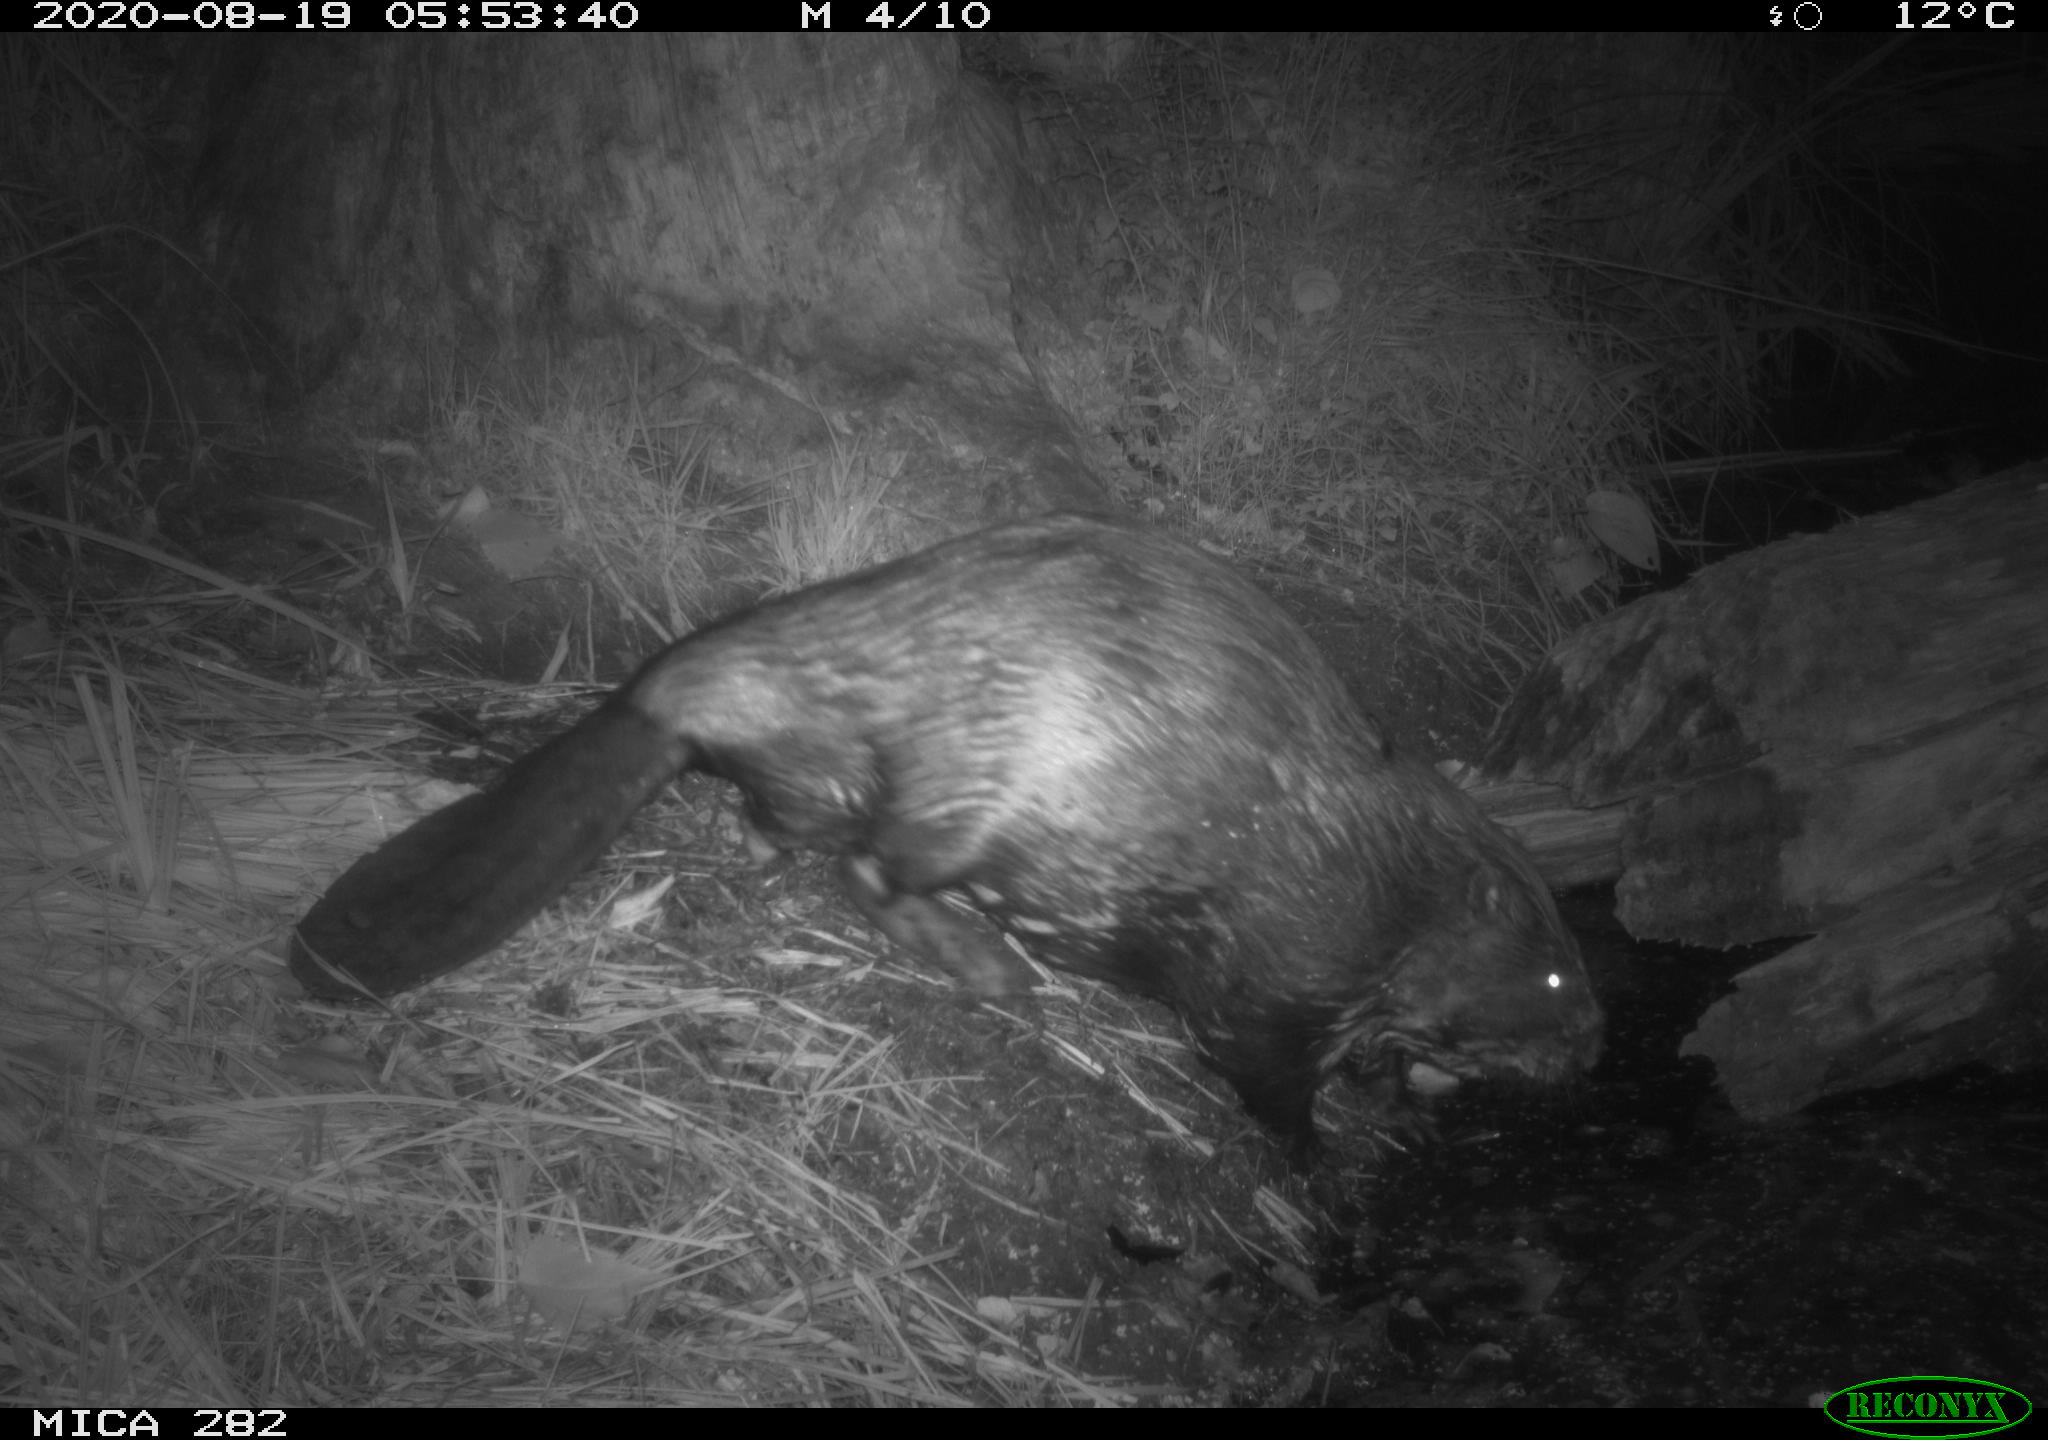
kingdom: Animalia
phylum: Chordata
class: Mammalia
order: Rodentia
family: Castoridae
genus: Castor
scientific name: Castor fiber
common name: Eurasian beaver
